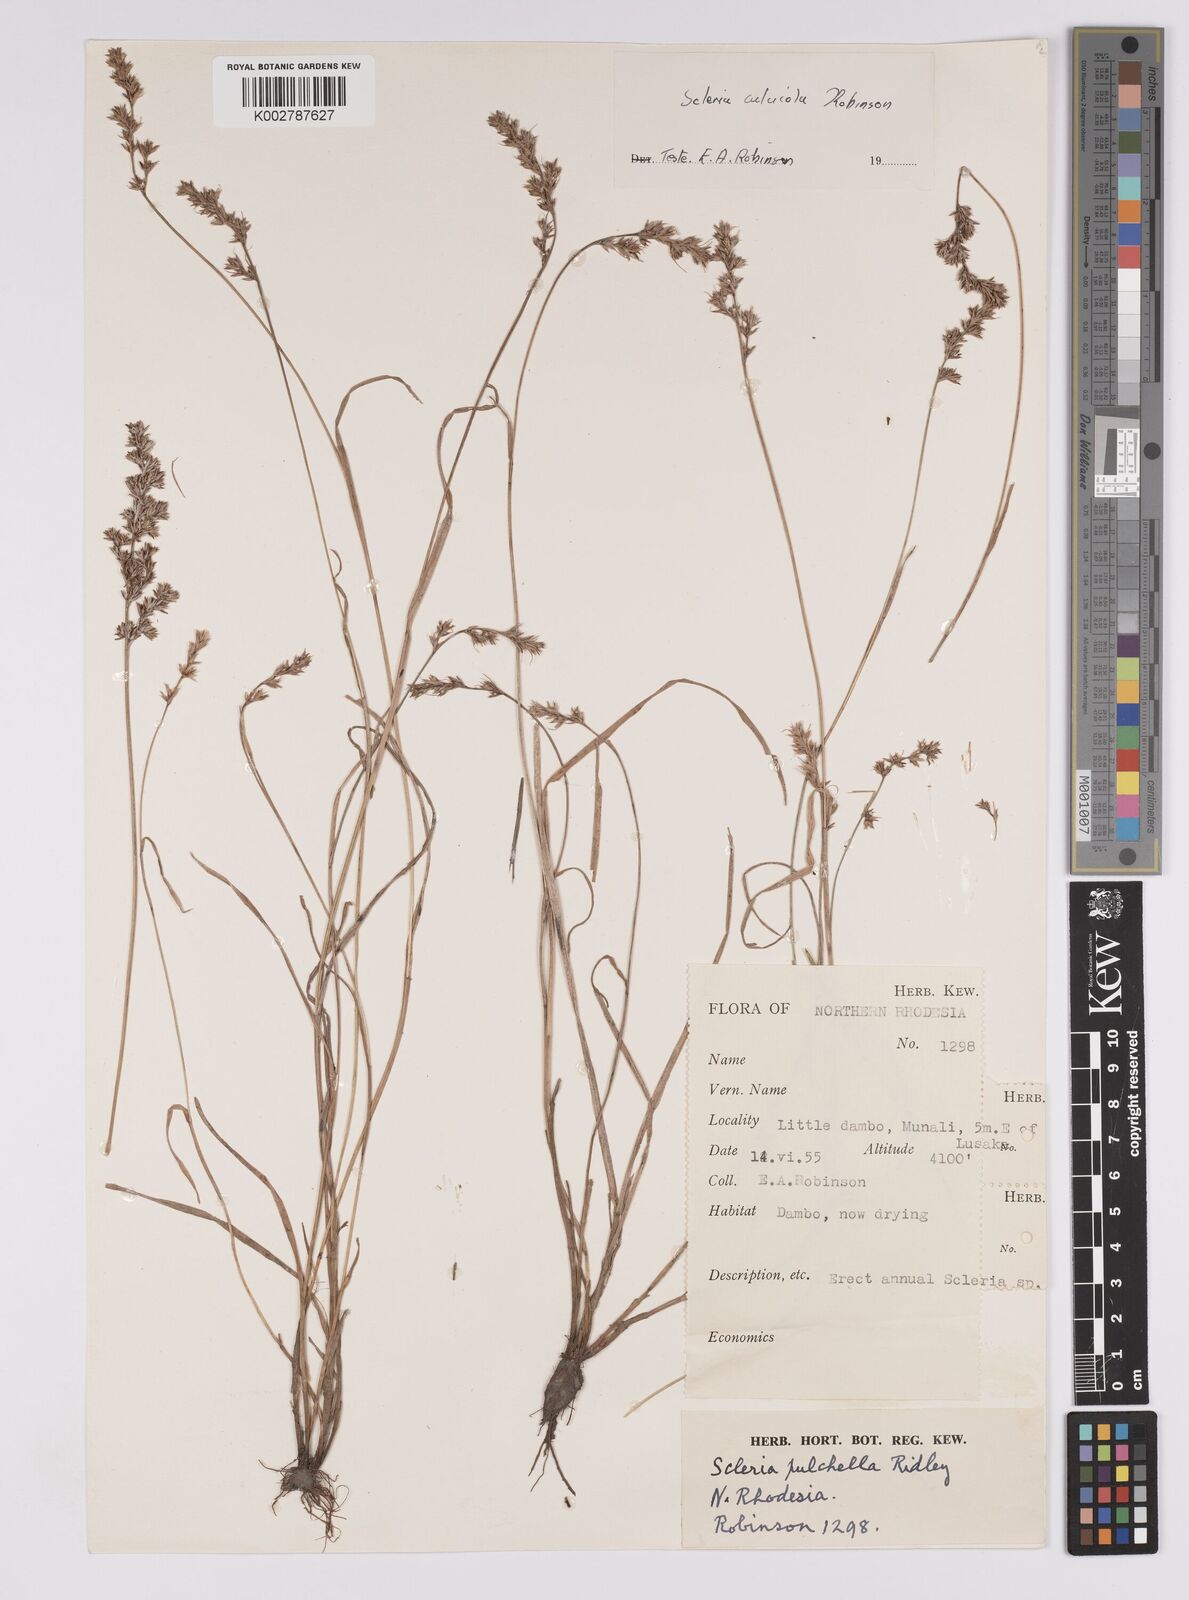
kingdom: Plantae
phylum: Tracheophyta
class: Liliopsida
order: Poales
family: Cyperaceae
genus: Scleria
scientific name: Scleria calcicola
